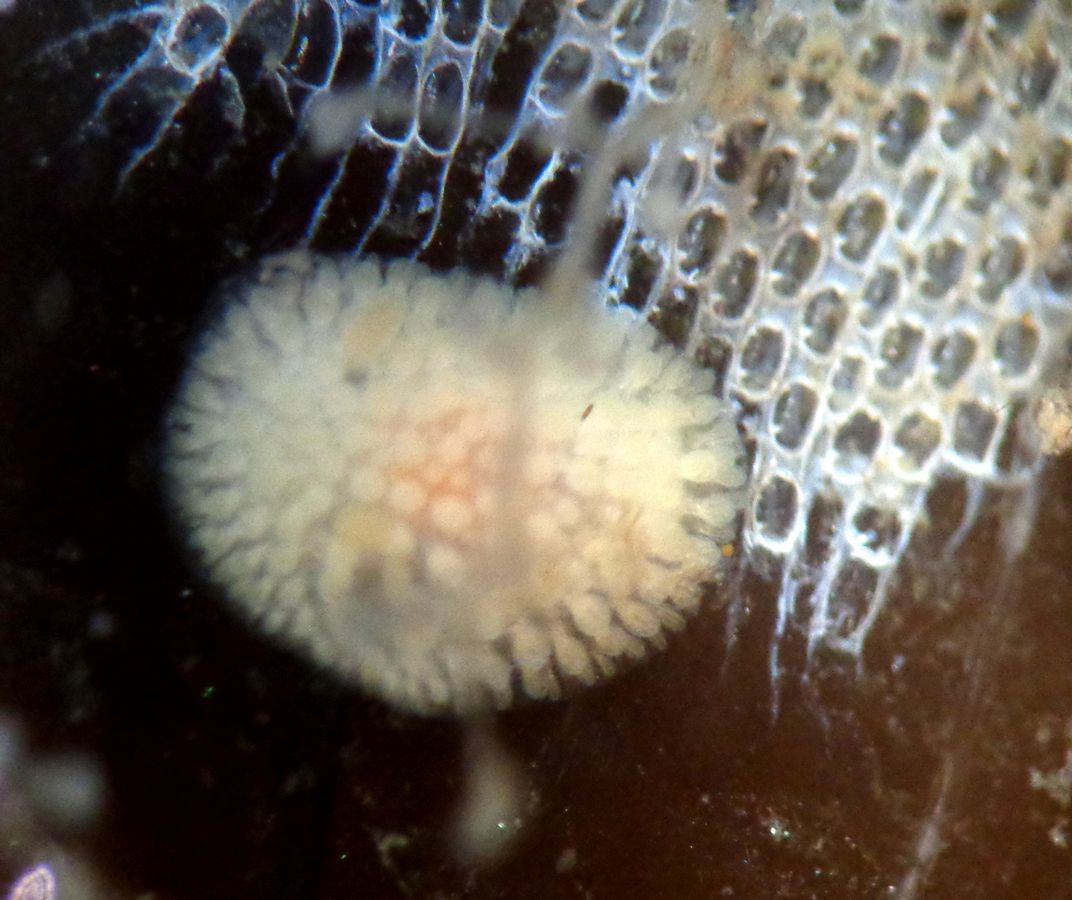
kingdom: Animalia
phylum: Mollusca
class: Gastropoda
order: Nudibranchia
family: Onchidorididae
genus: Onchidoris
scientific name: Onchidoris muricata
